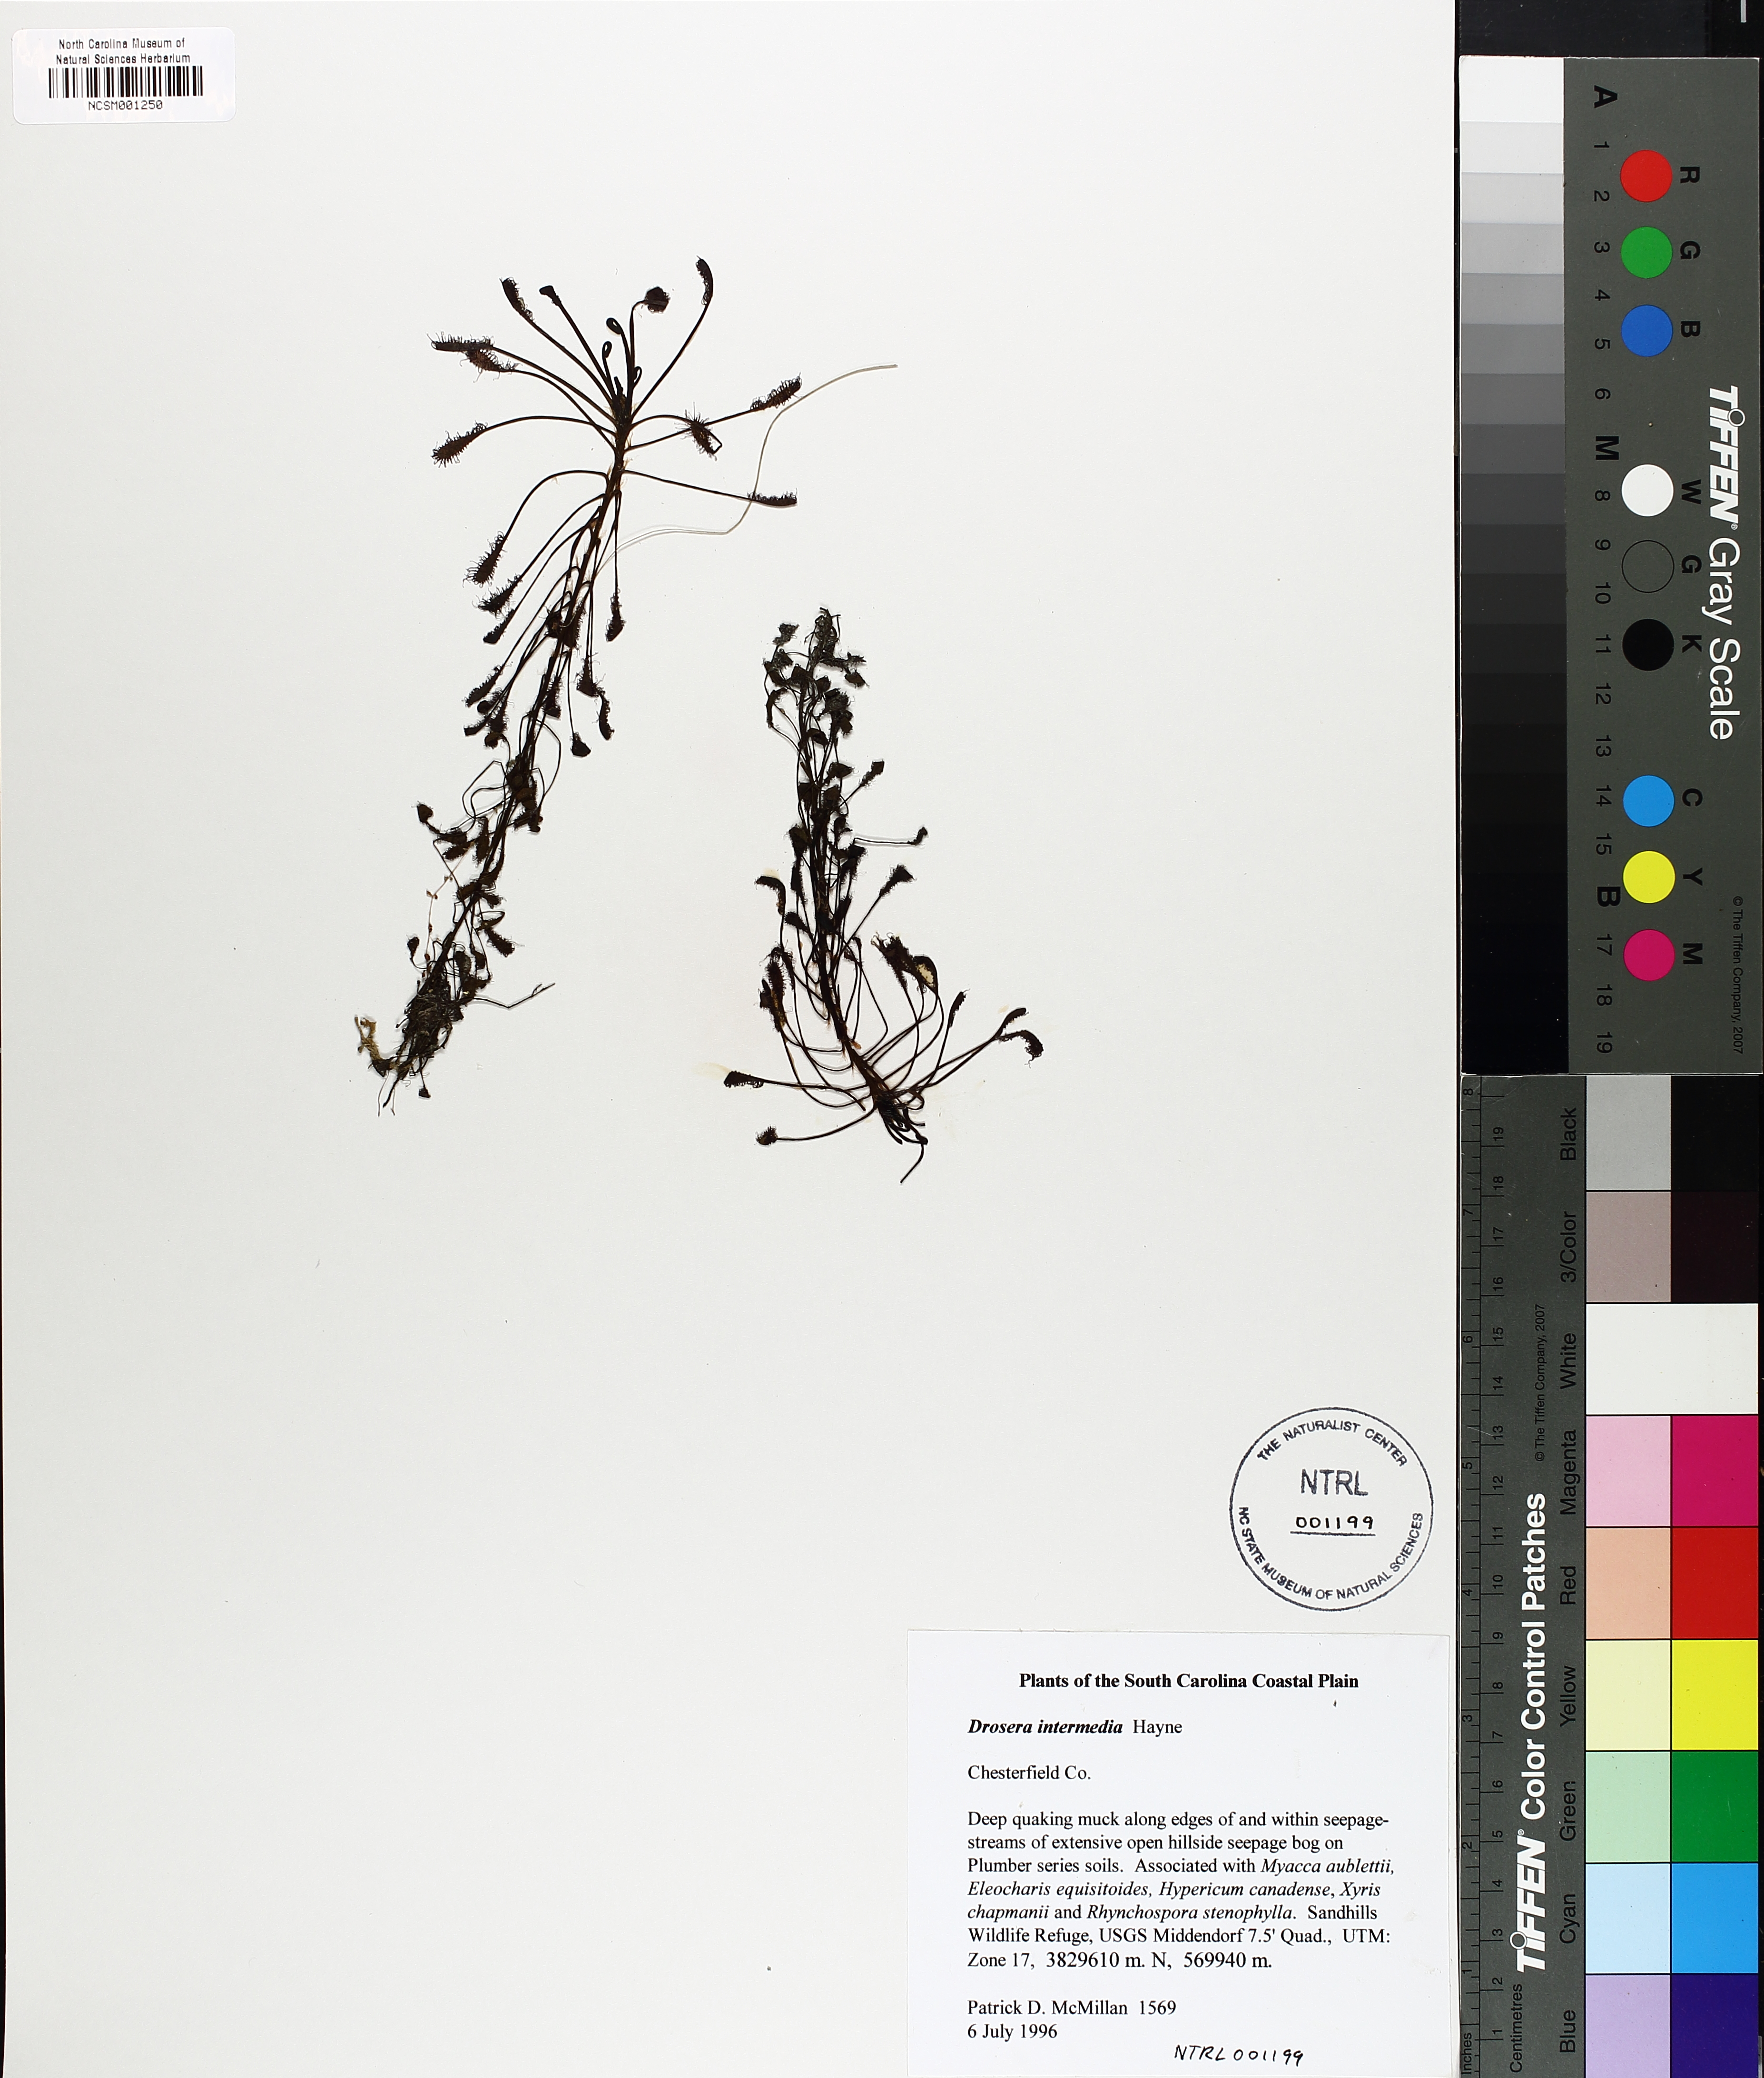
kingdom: Plantae
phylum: Tracheophyta
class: Magnoliopsida
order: Caryophyllales
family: Droseraceae
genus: Drosera
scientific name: Drosera intermedia
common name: Oblong-leaved sundew
